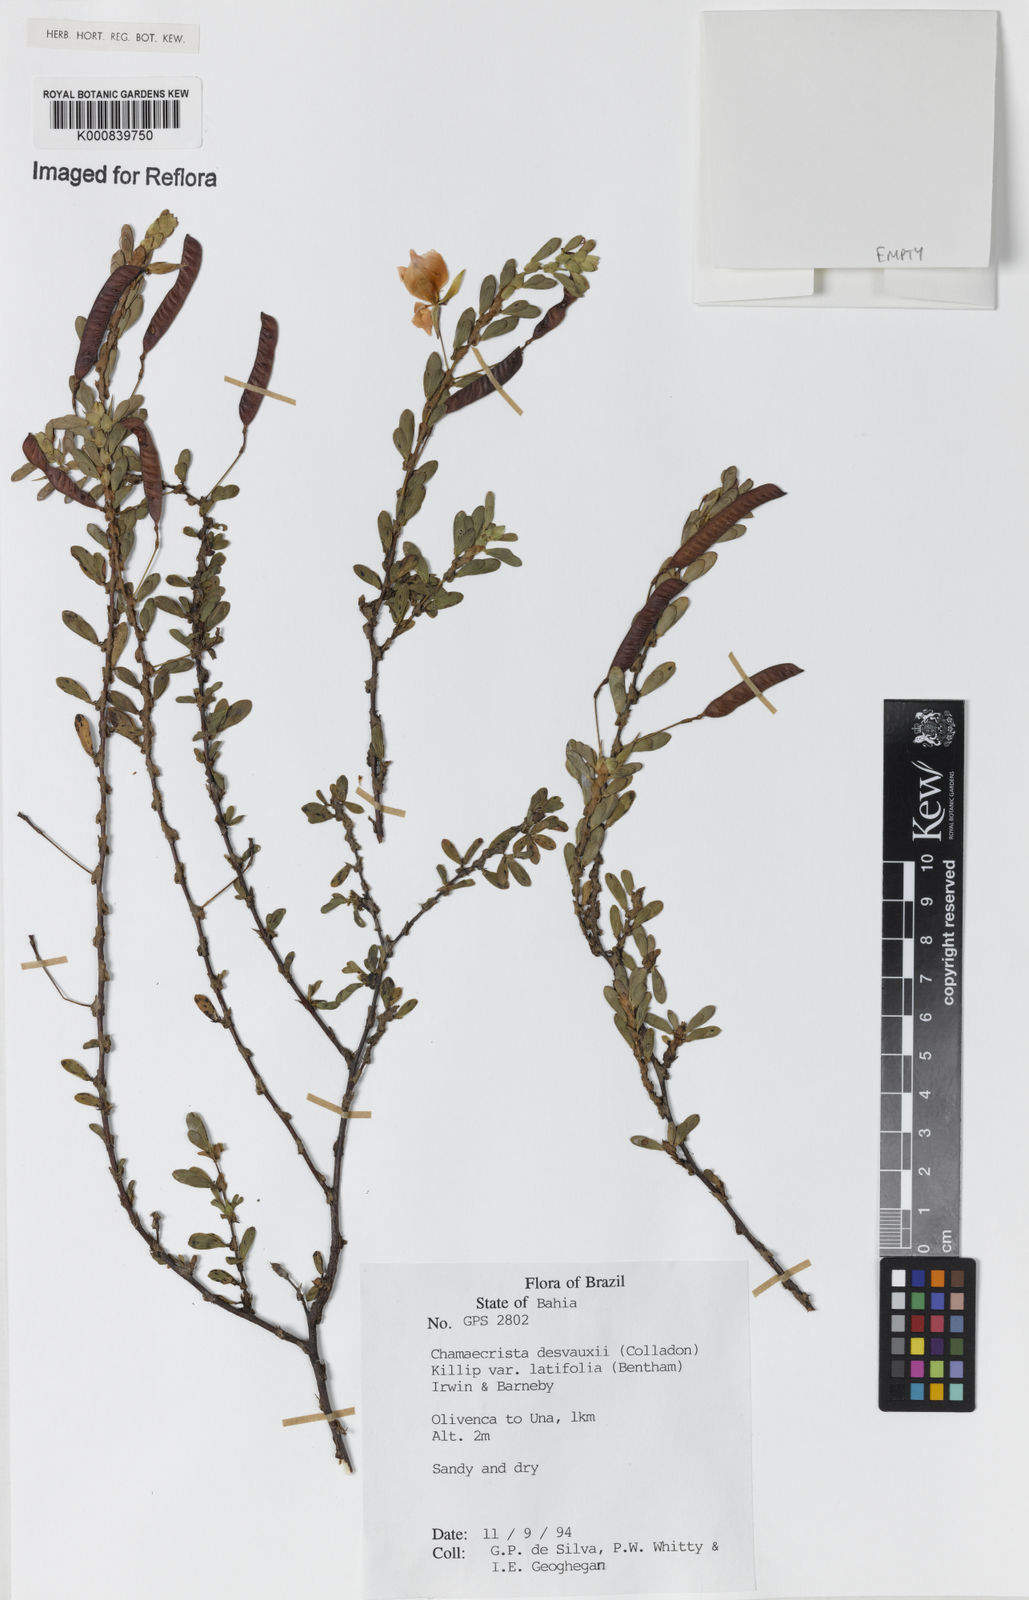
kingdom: Plantae
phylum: Tracheophyta
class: Magnoliopsida
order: Fabales
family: Fabaceae
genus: Chamaecrista
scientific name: Chamaecrista desvauxii
